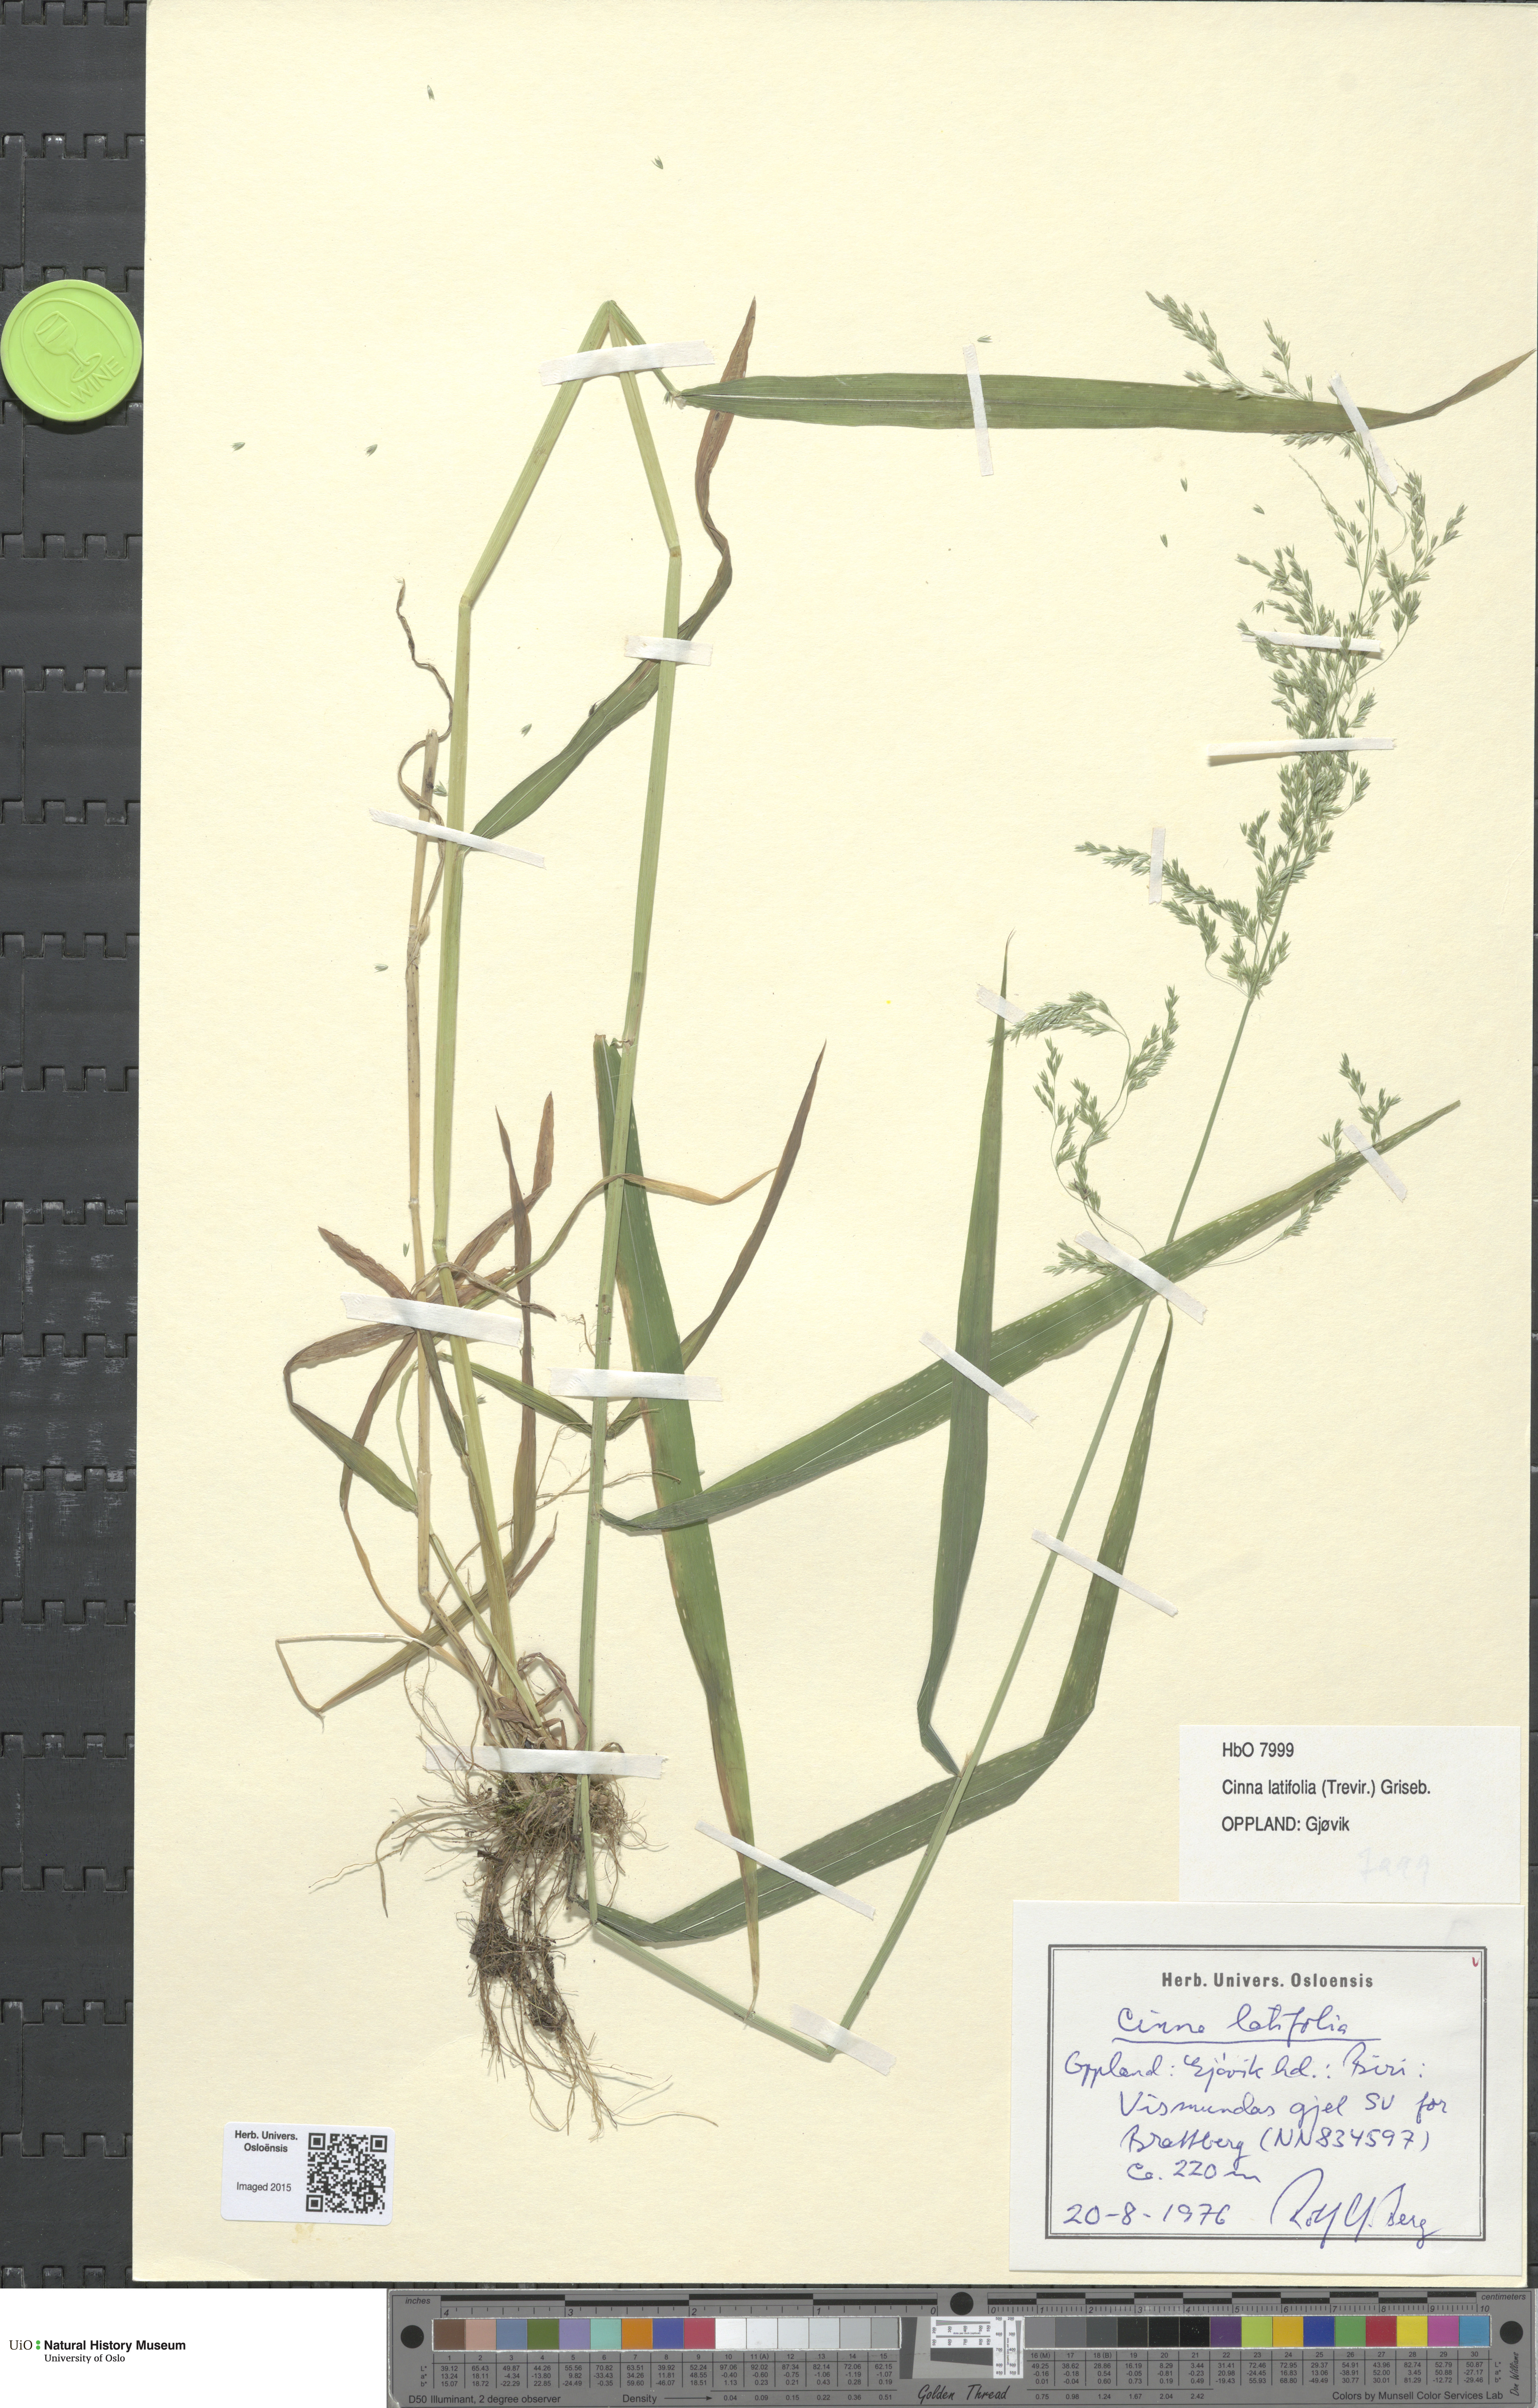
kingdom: Plantae
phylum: Tracheophyta
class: Liliopsida
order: Poales
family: Poaceae
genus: Cinna
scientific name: Cinna latifolia
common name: Drooping woodreed
